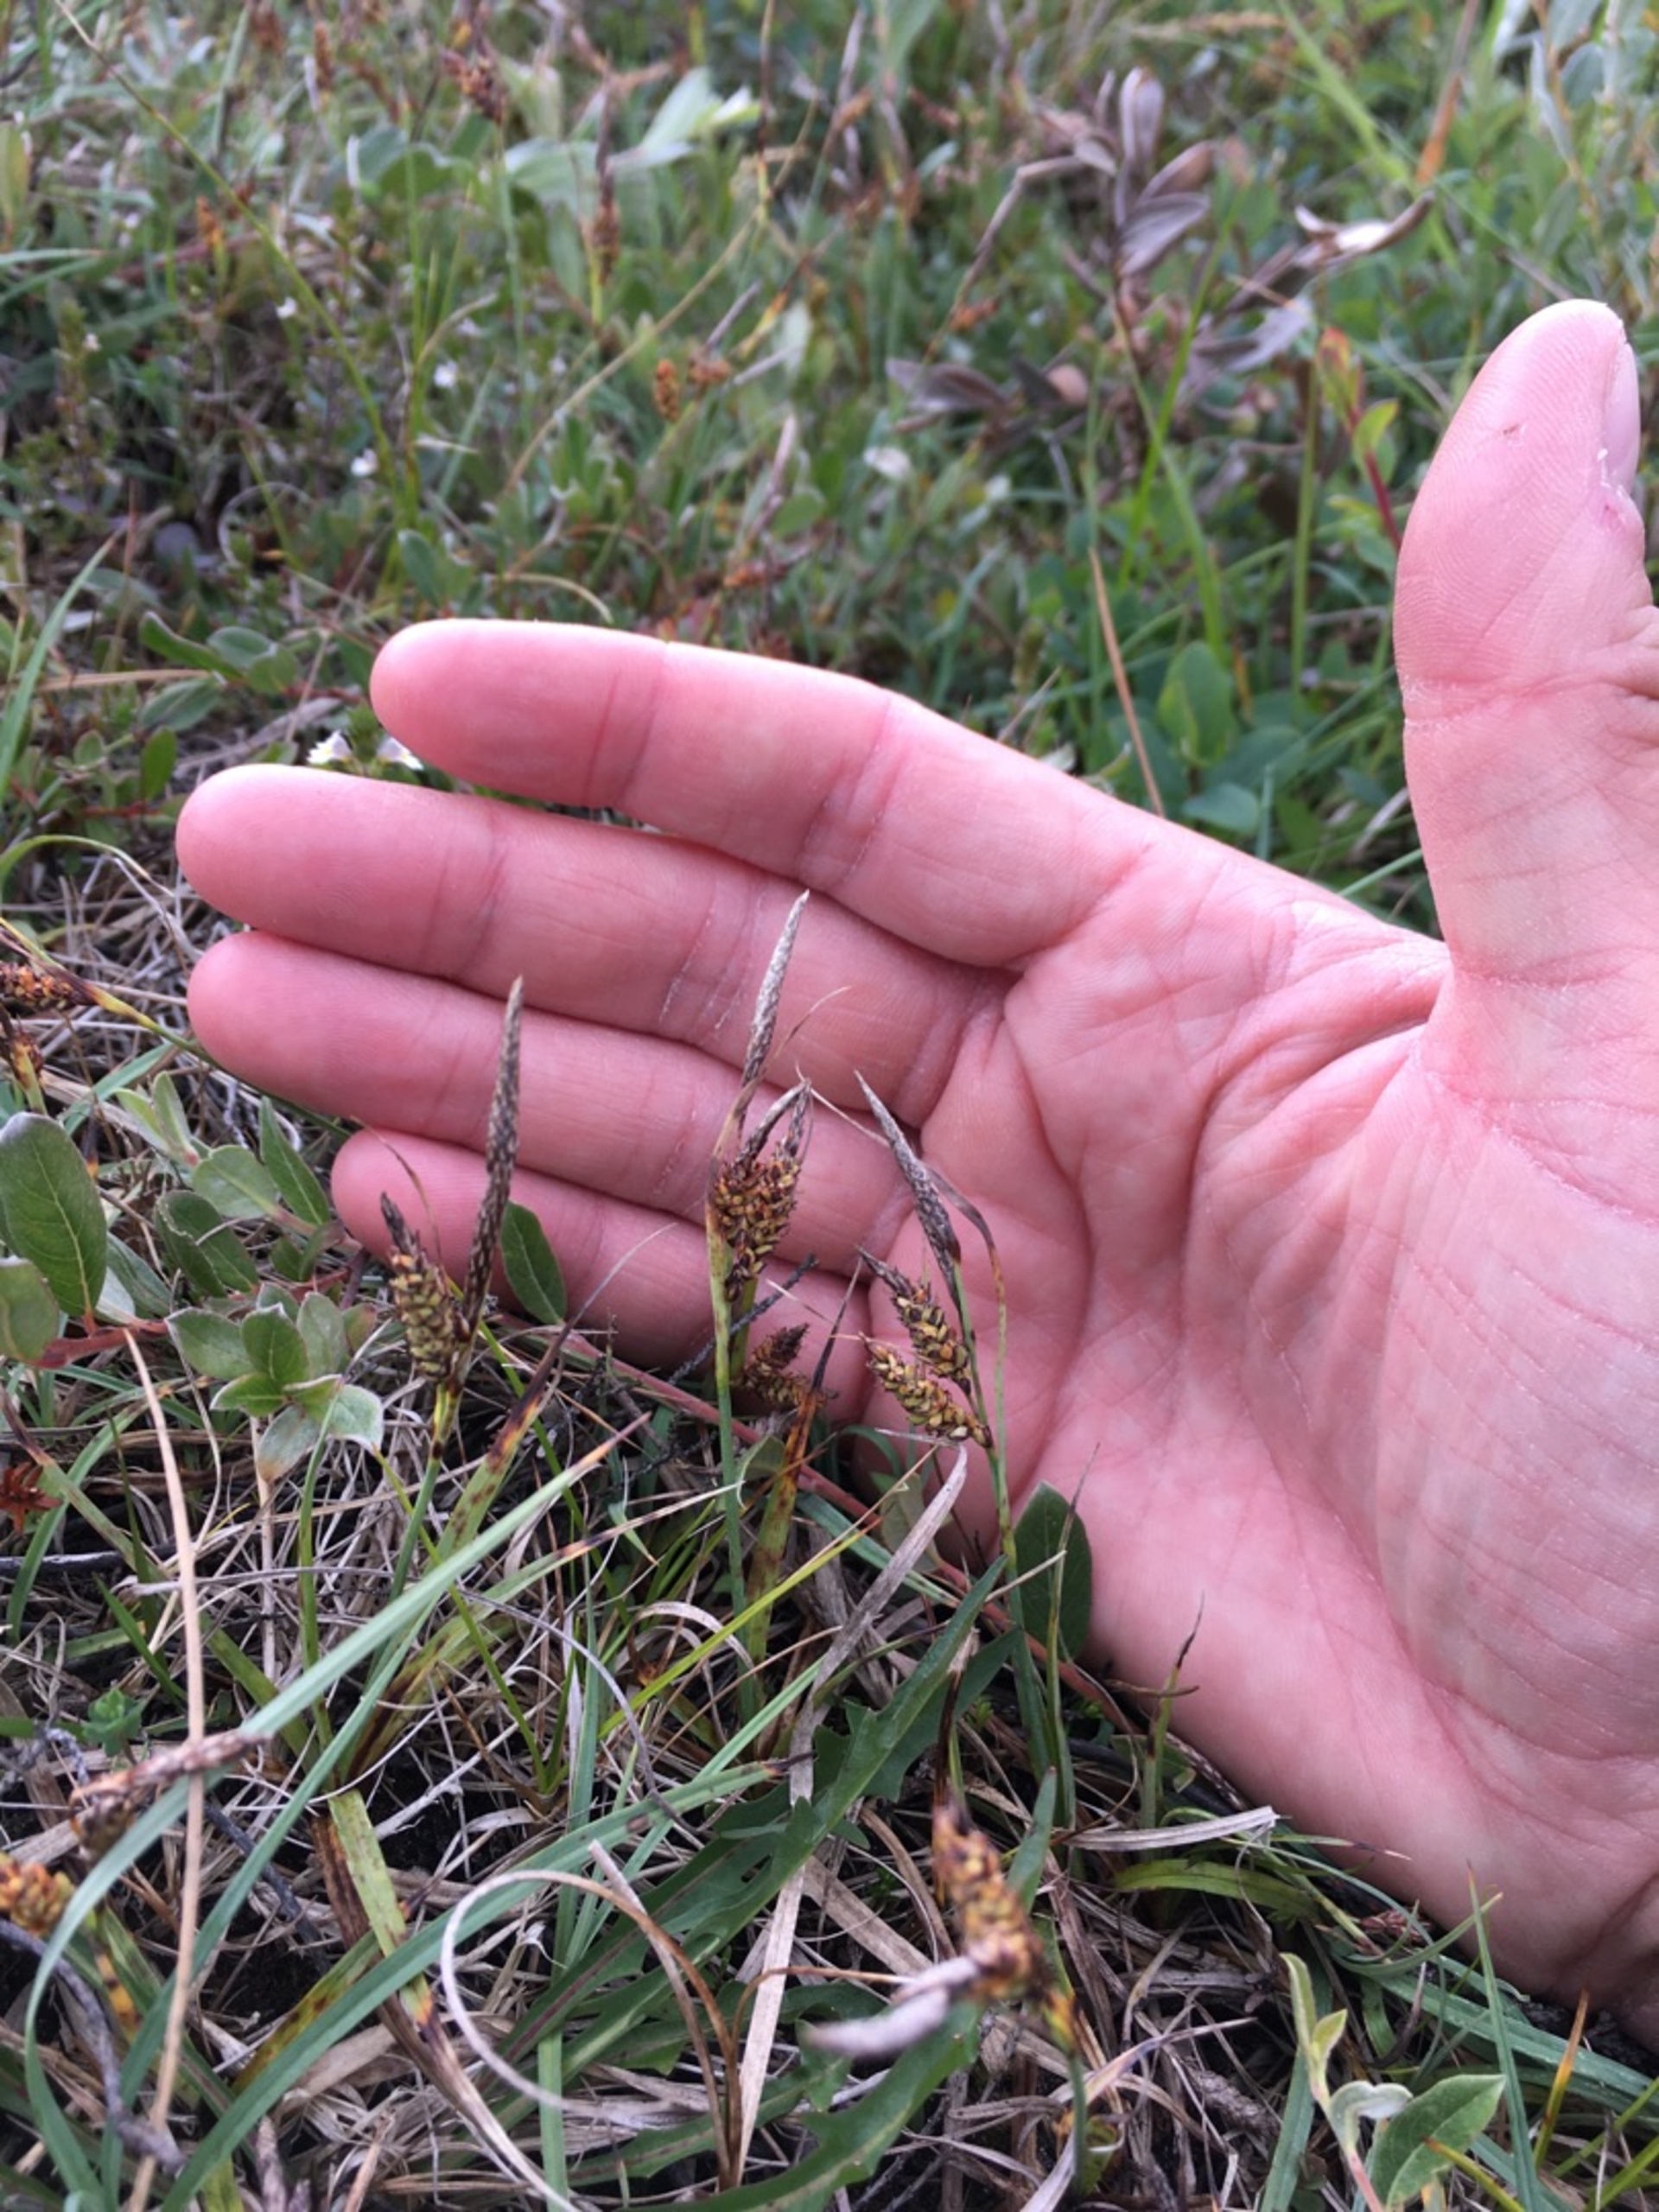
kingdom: Plantae
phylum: Tracheophyta
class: Liliopsida
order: Poales
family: Cyperaceae
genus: Carex
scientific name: Carex flacca
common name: Blågrøn star
